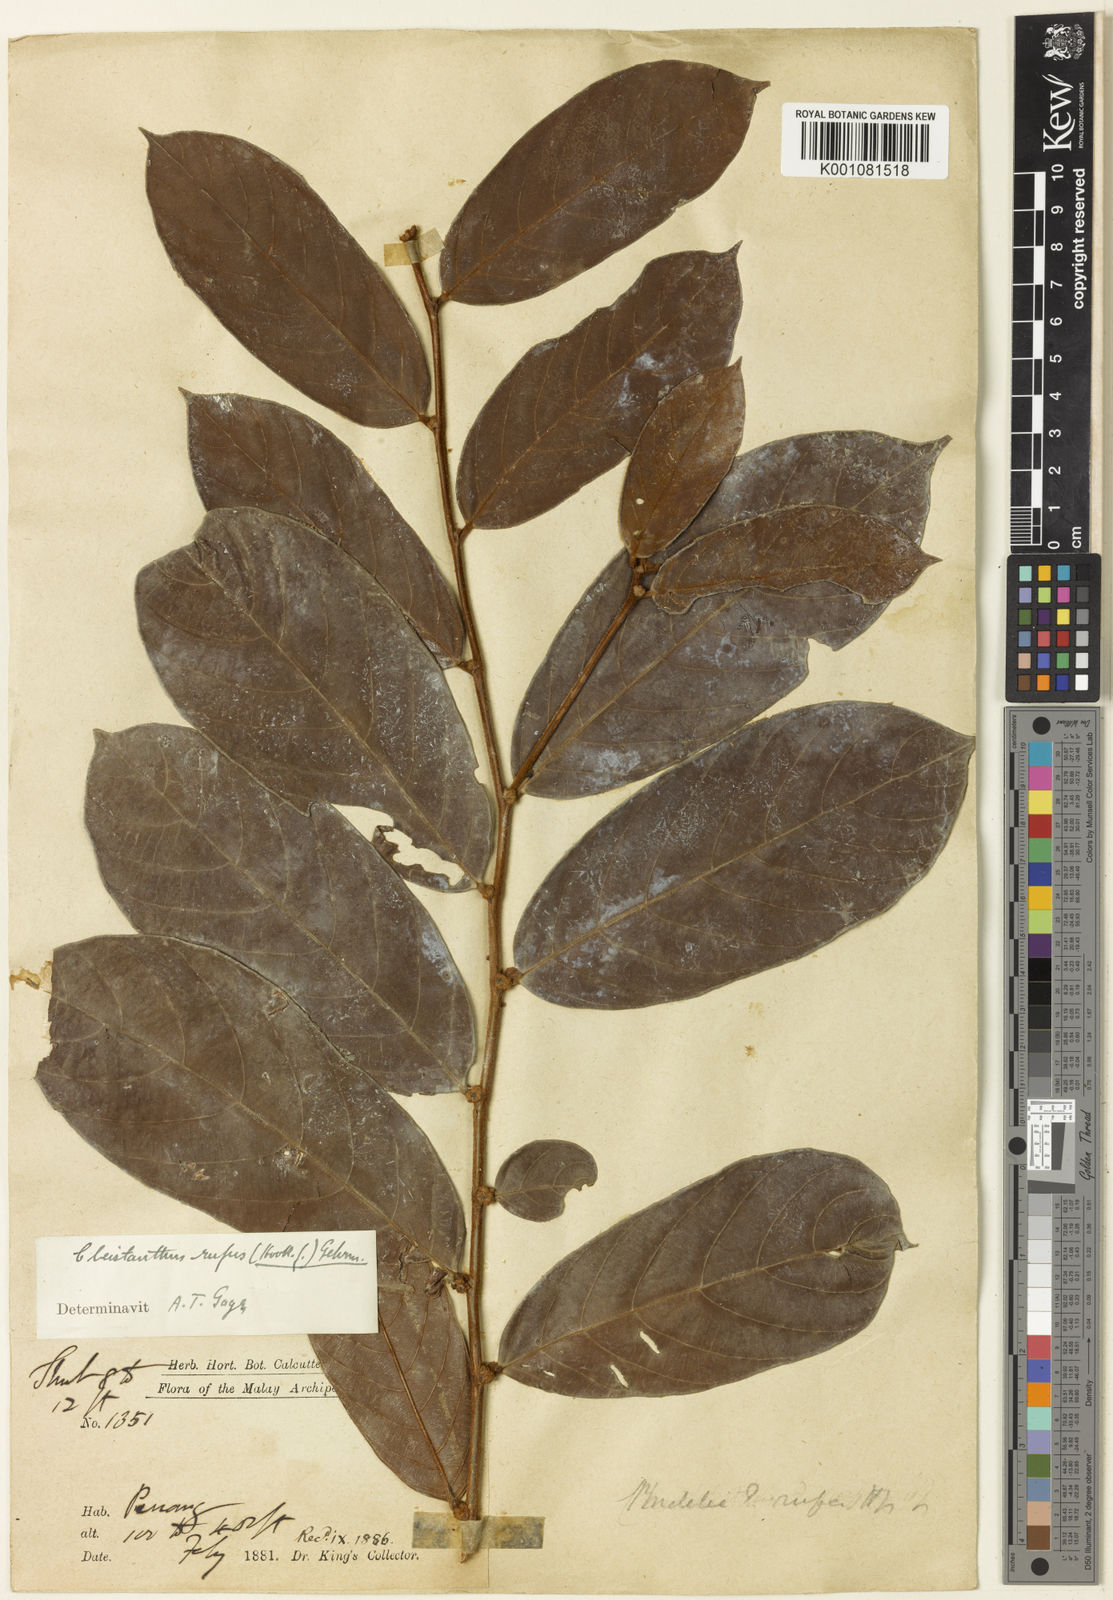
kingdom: Plantae
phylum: Tracheophyta
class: Magnoliopsida
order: Malpighiales
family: Phyllanthaceae
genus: Cleistanthus
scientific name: Cleistanthus rufus
